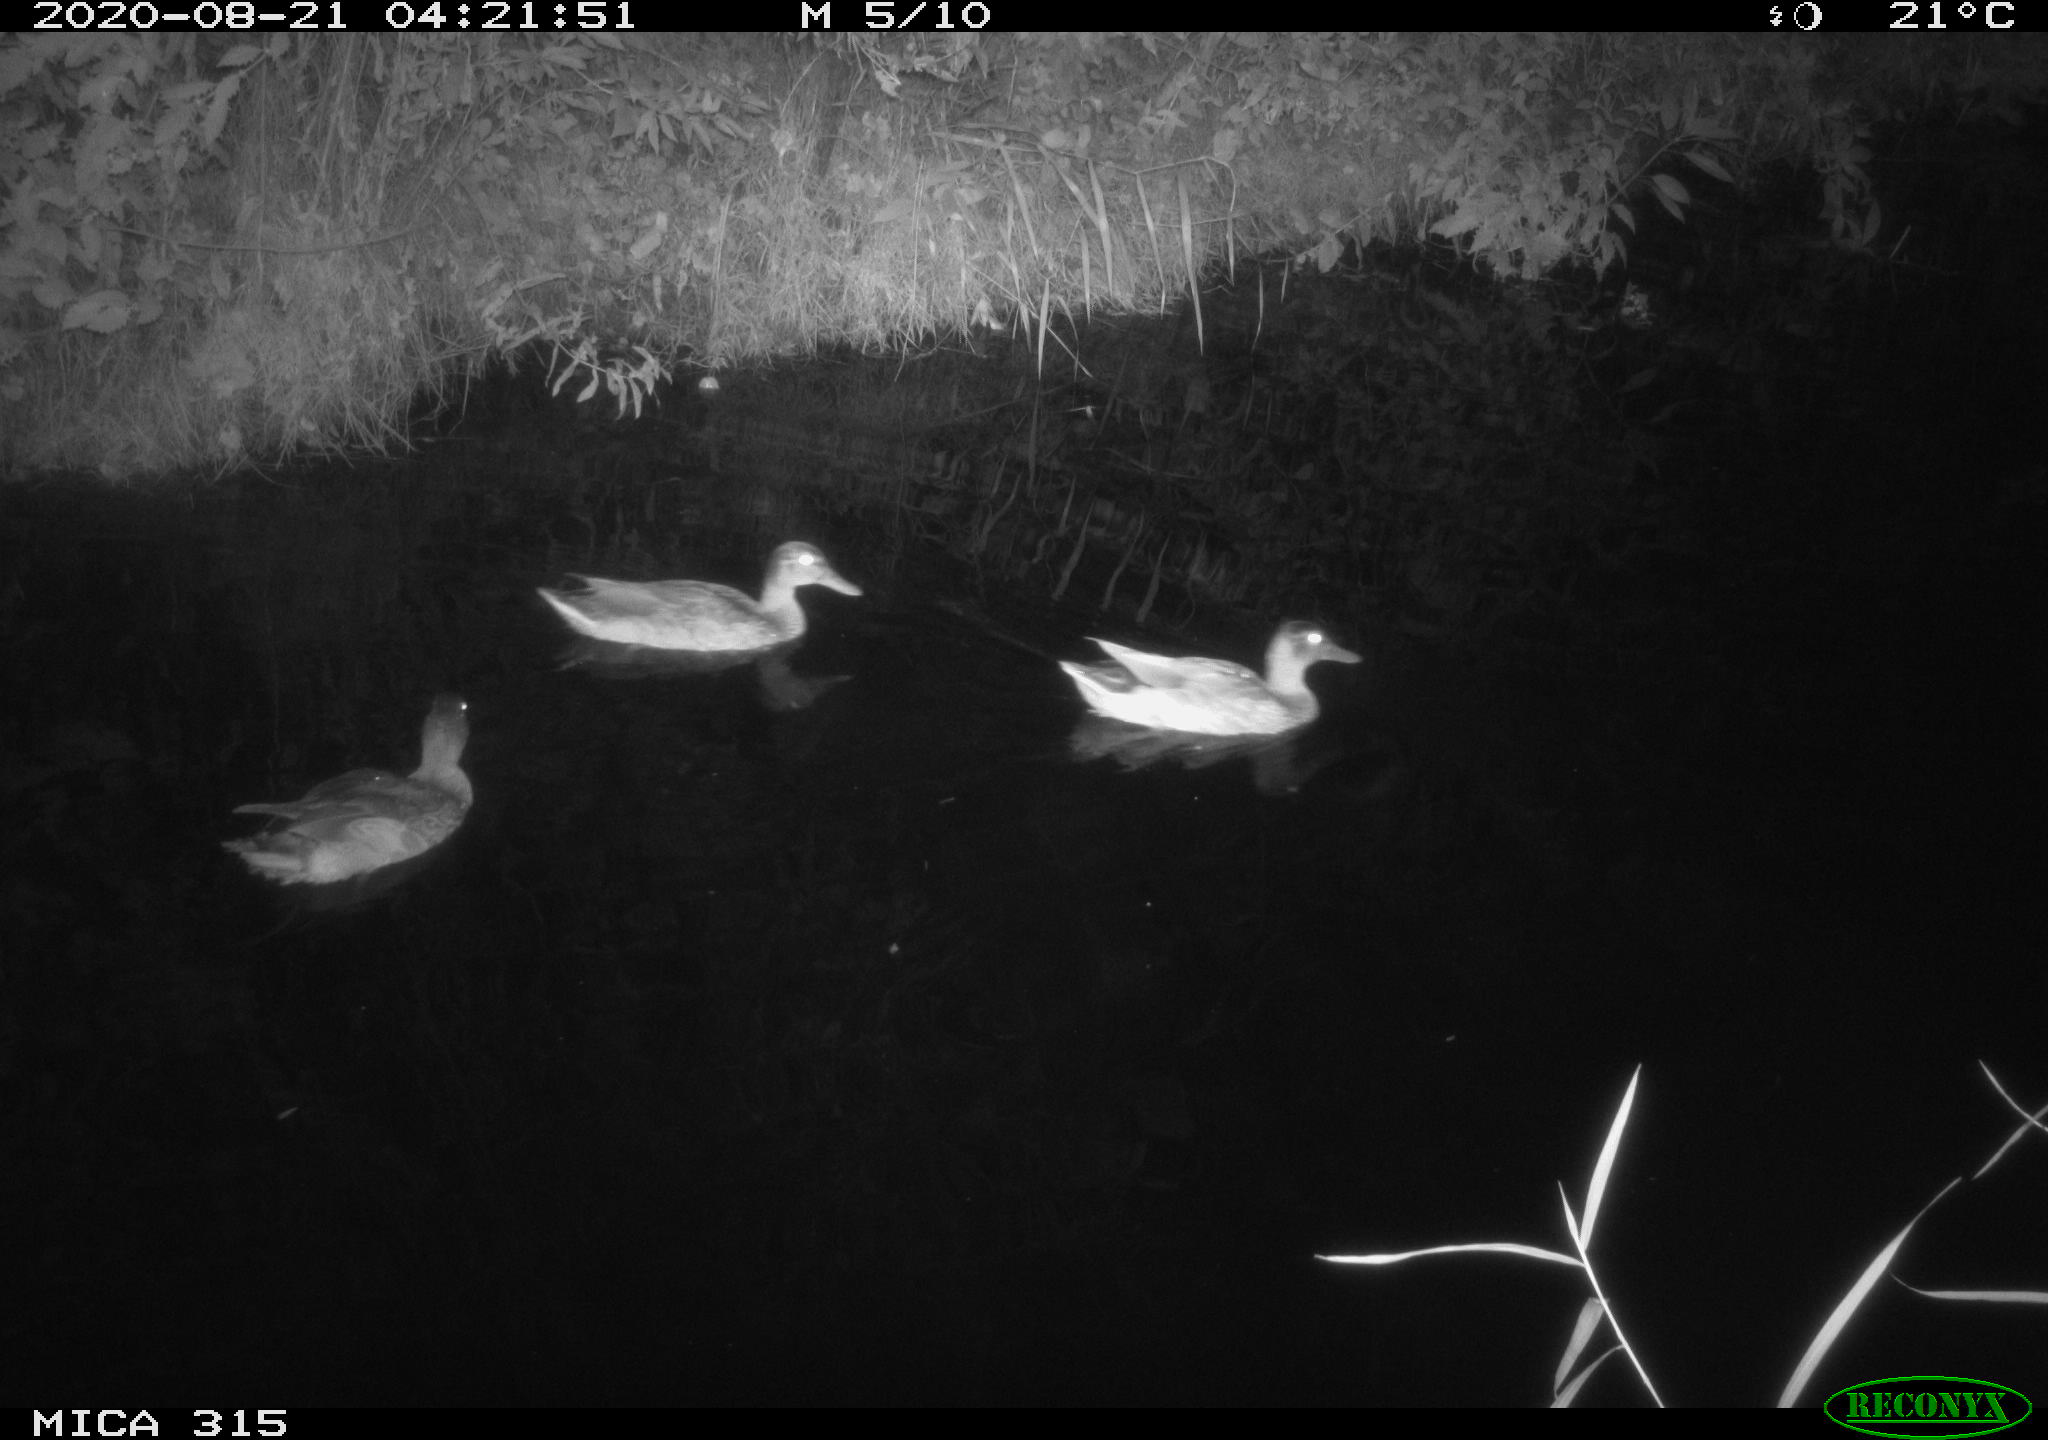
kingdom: Animalia
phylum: Chordata
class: Aves
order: Anseriformes
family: Anatidae
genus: Anas
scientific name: Anas platyrhynchos
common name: Mallard
